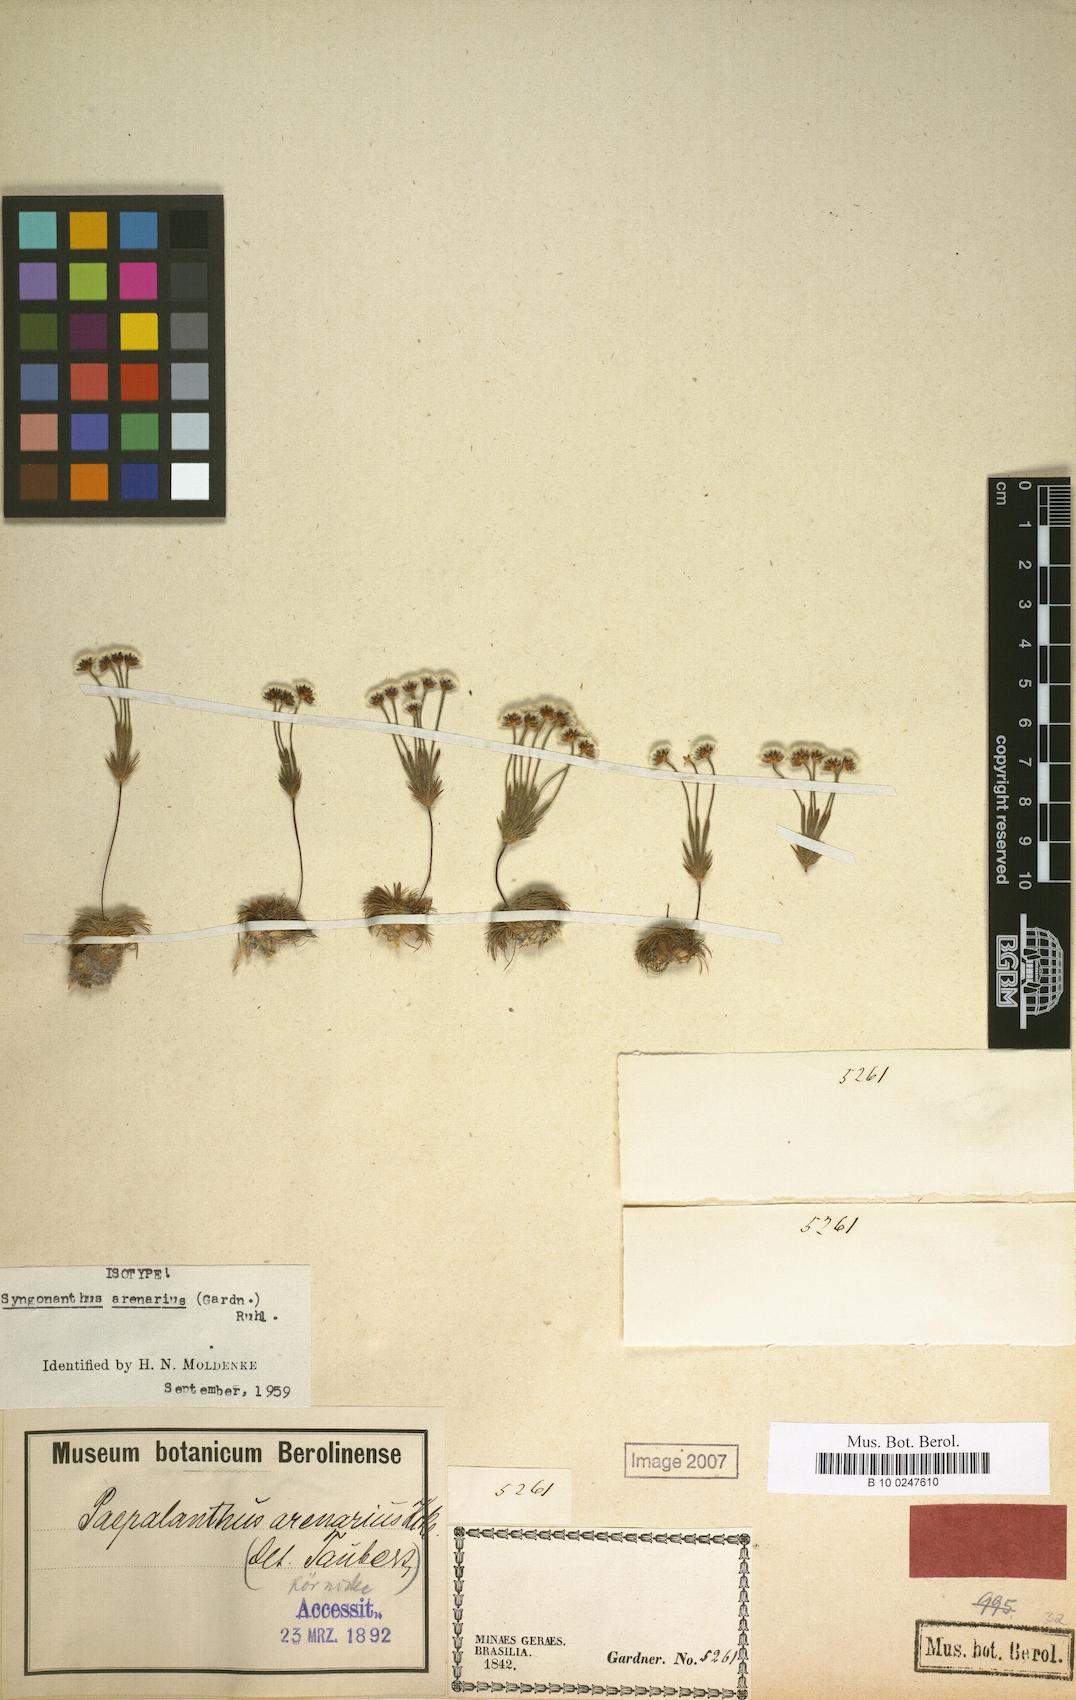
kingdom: Plantae
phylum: Tracheophyta
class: Liliopsida
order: Poales
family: Eriocaulaceae
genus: Syngonanthus
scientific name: Syngonanthus arenarius
